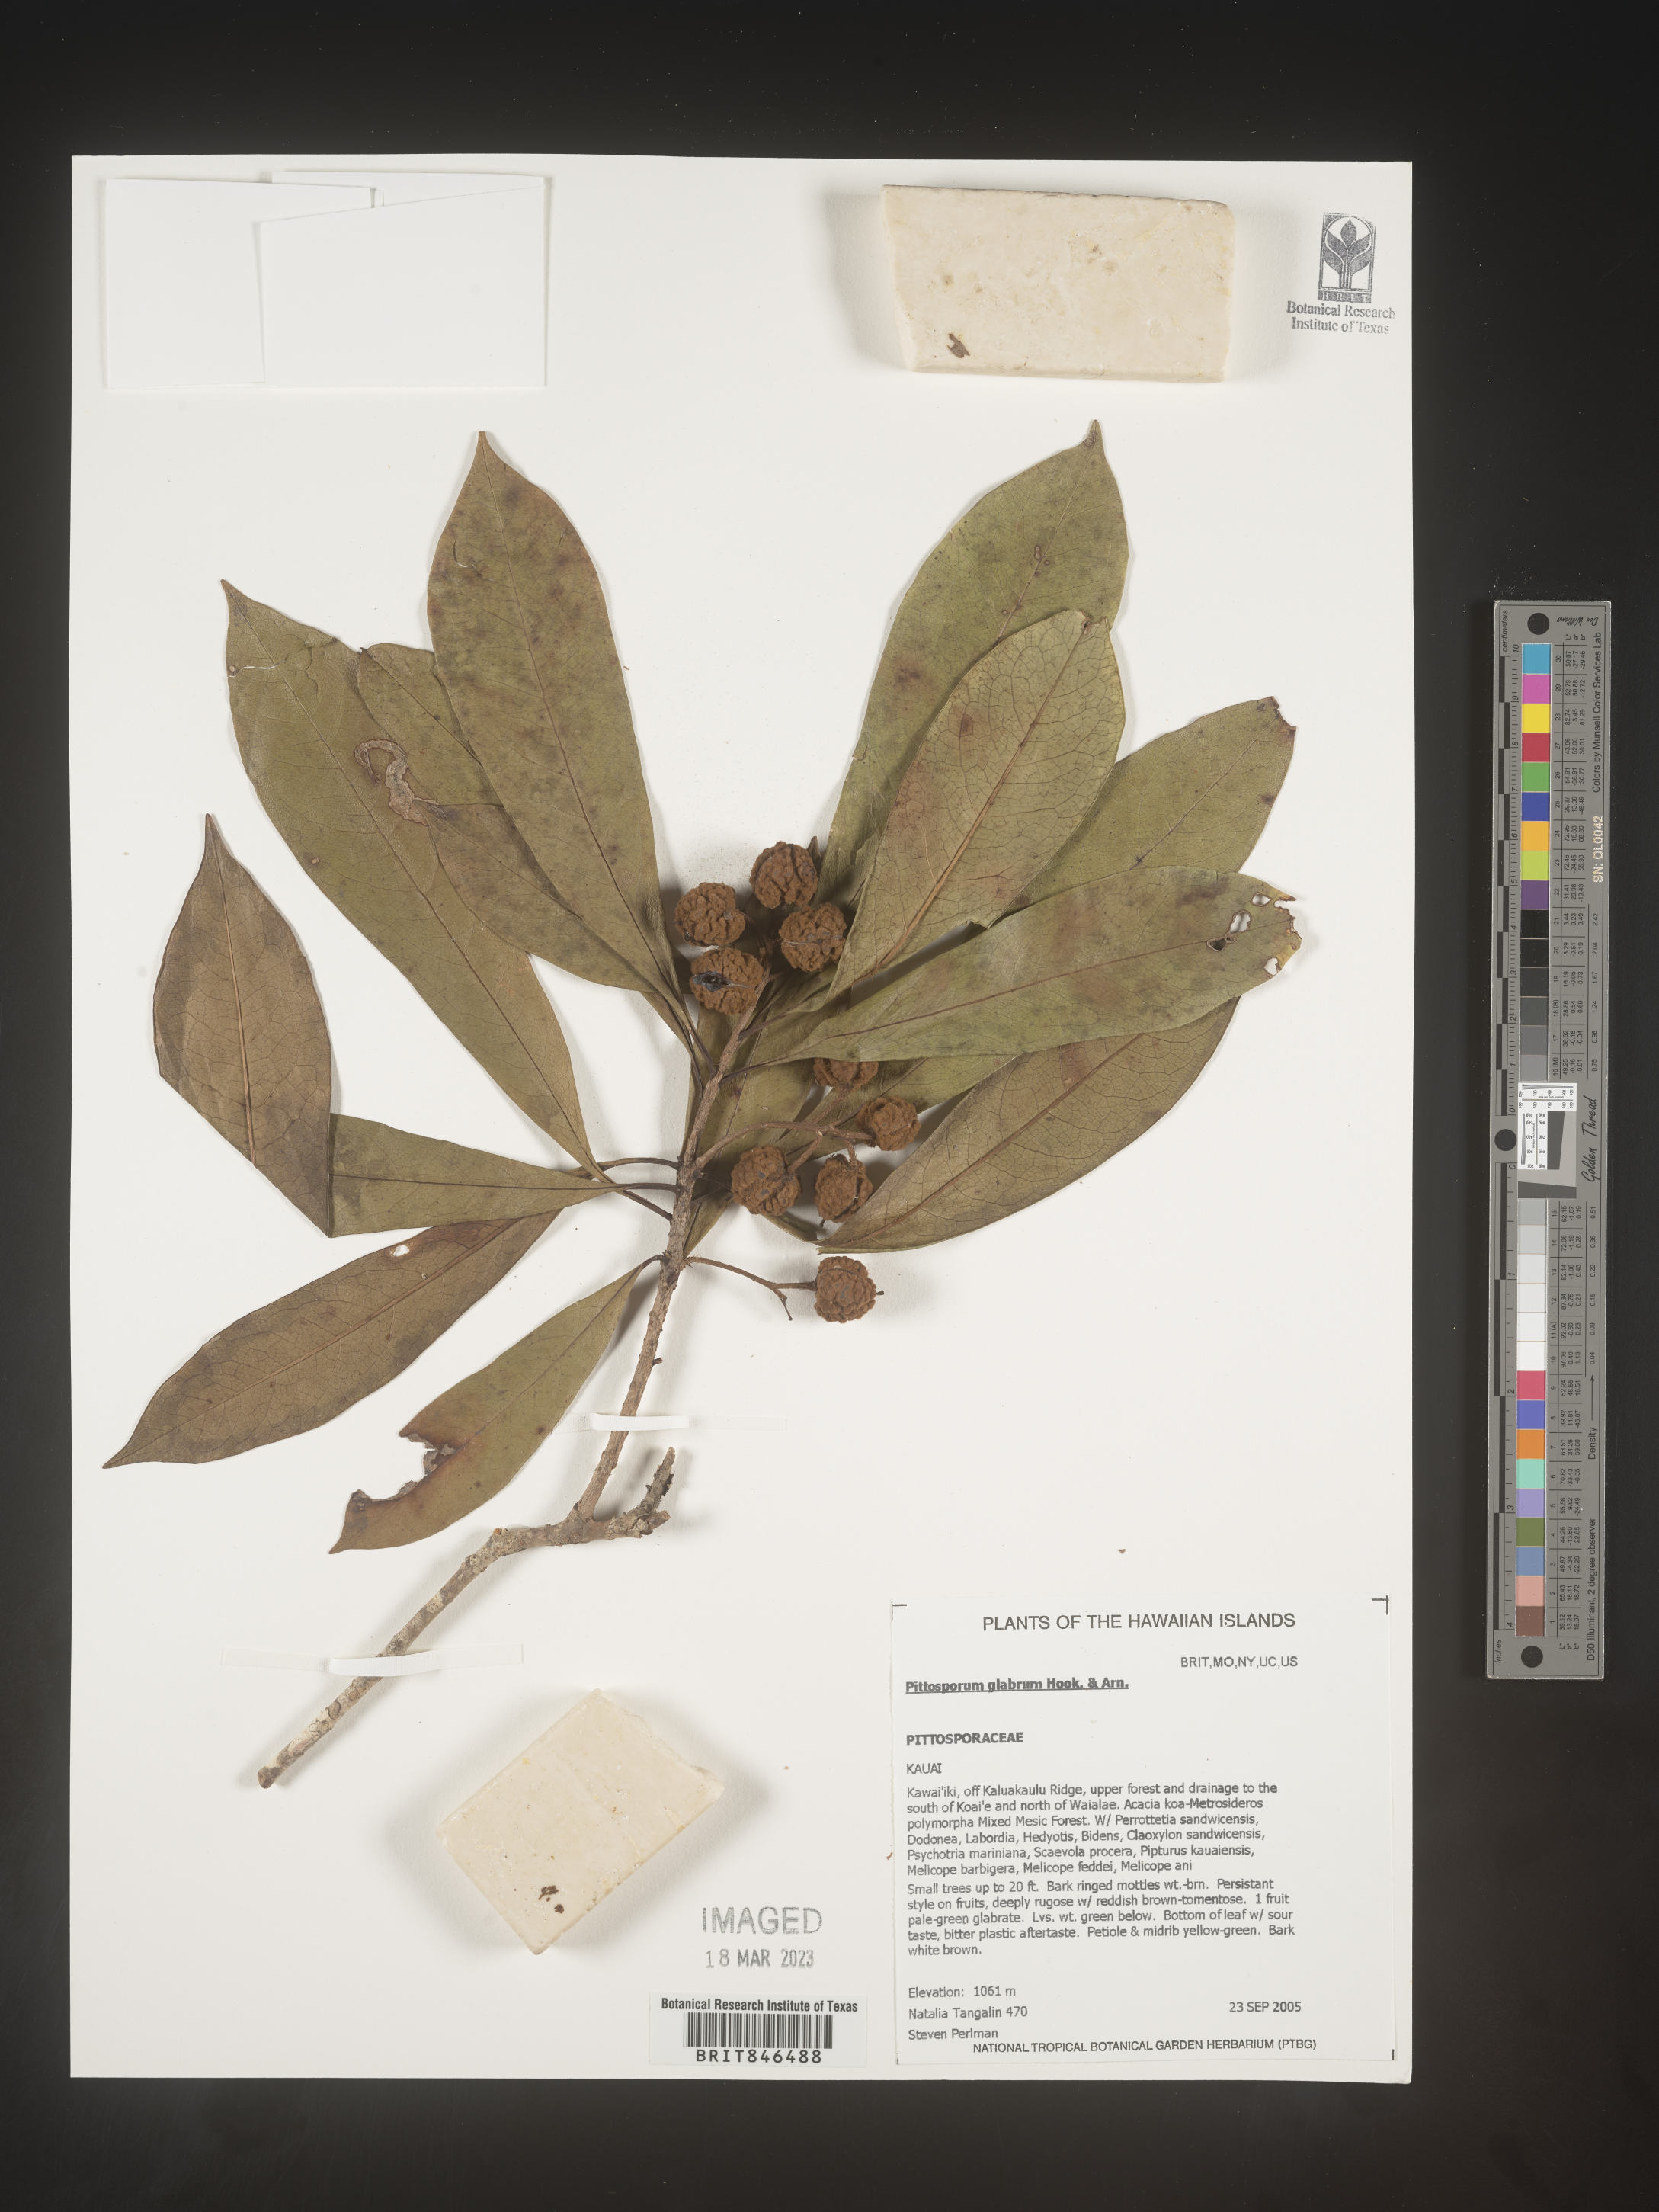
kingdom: Plantae
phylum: Tracheophyta
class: Magnoliopsida
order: Apiales
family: Pittosporaceae
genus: Pittosporum
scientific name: Pittosporum
